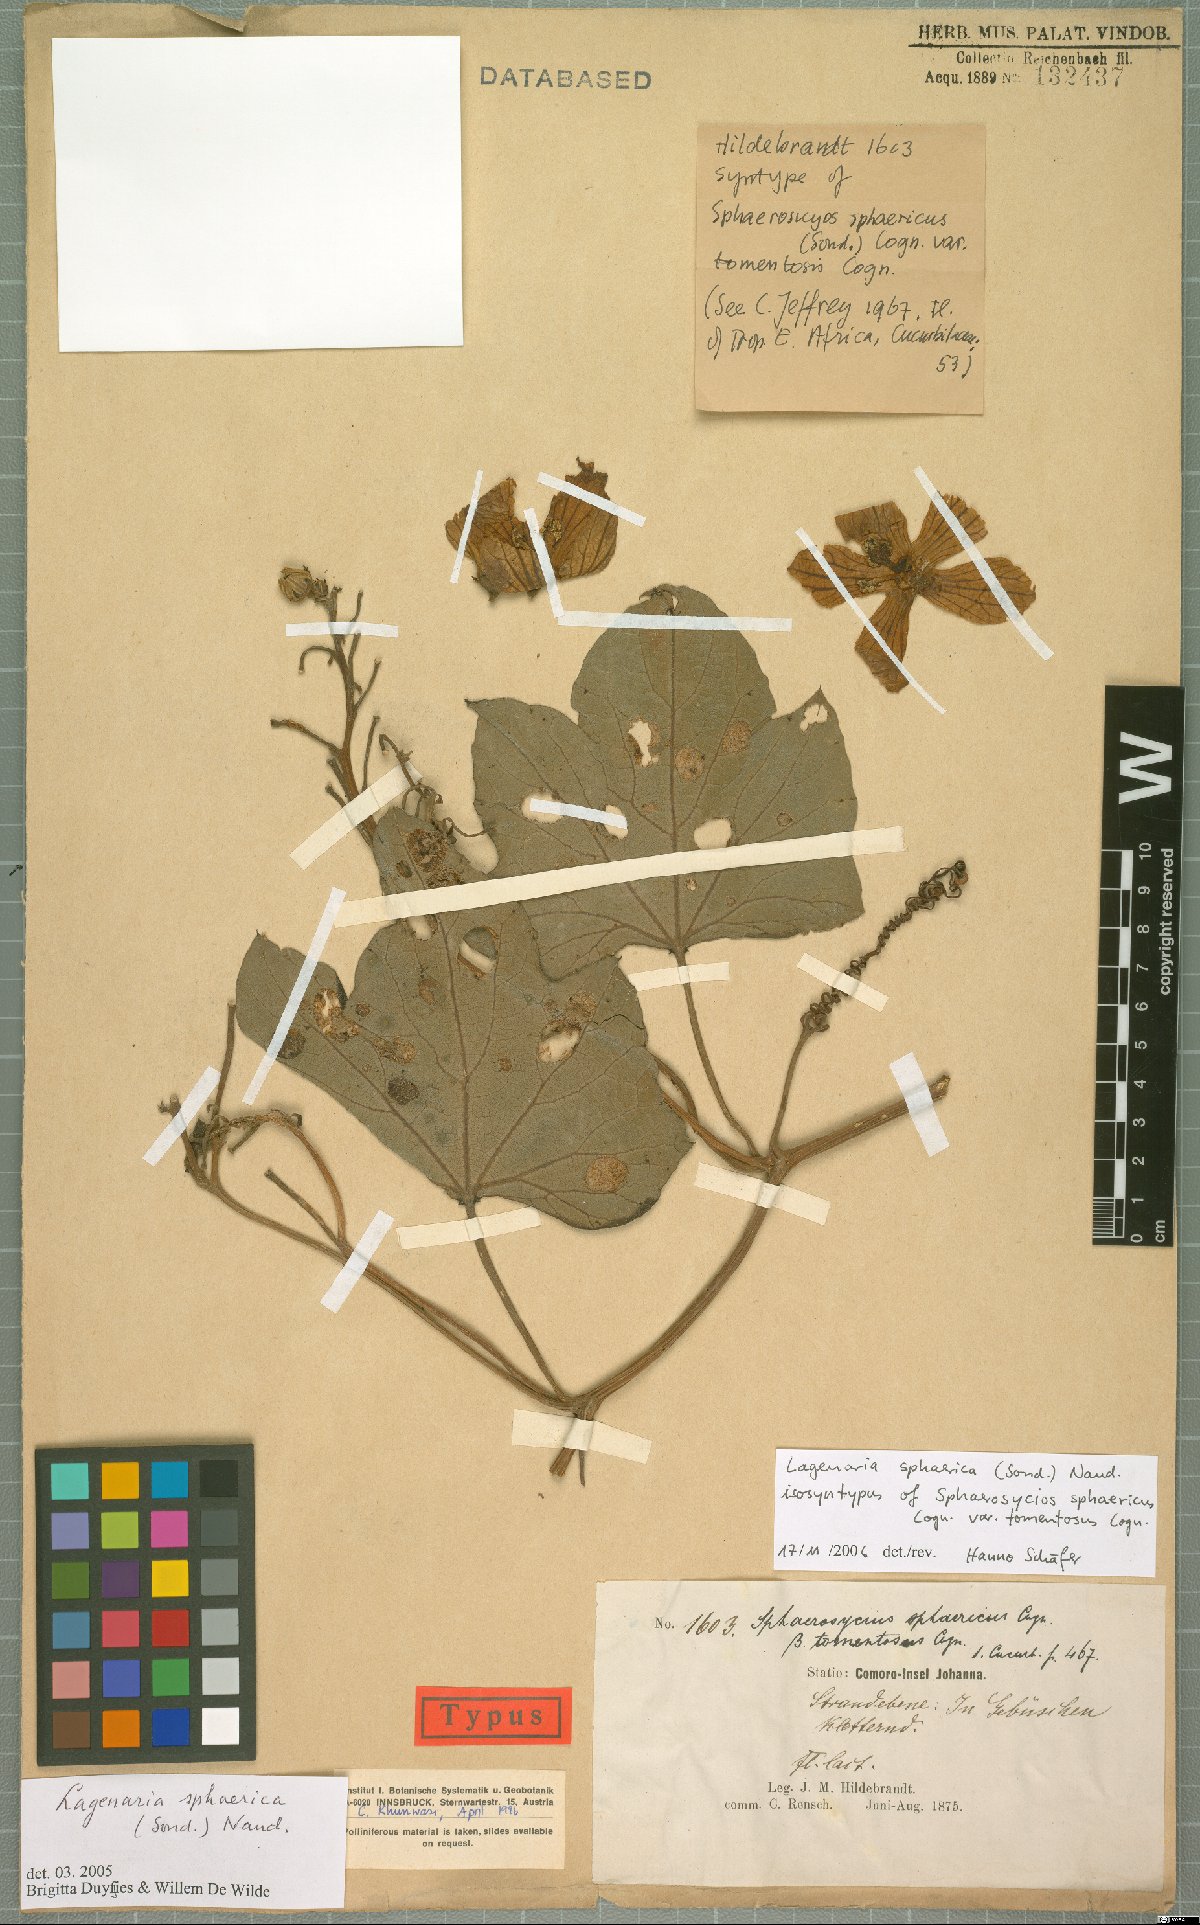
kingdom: Plantae
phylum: Tracheophyta
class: Magnoliopsida
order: Cucurbitales
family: Cucurbitaceae
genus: Lagenaria
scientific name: Lagenaria sphaerica
